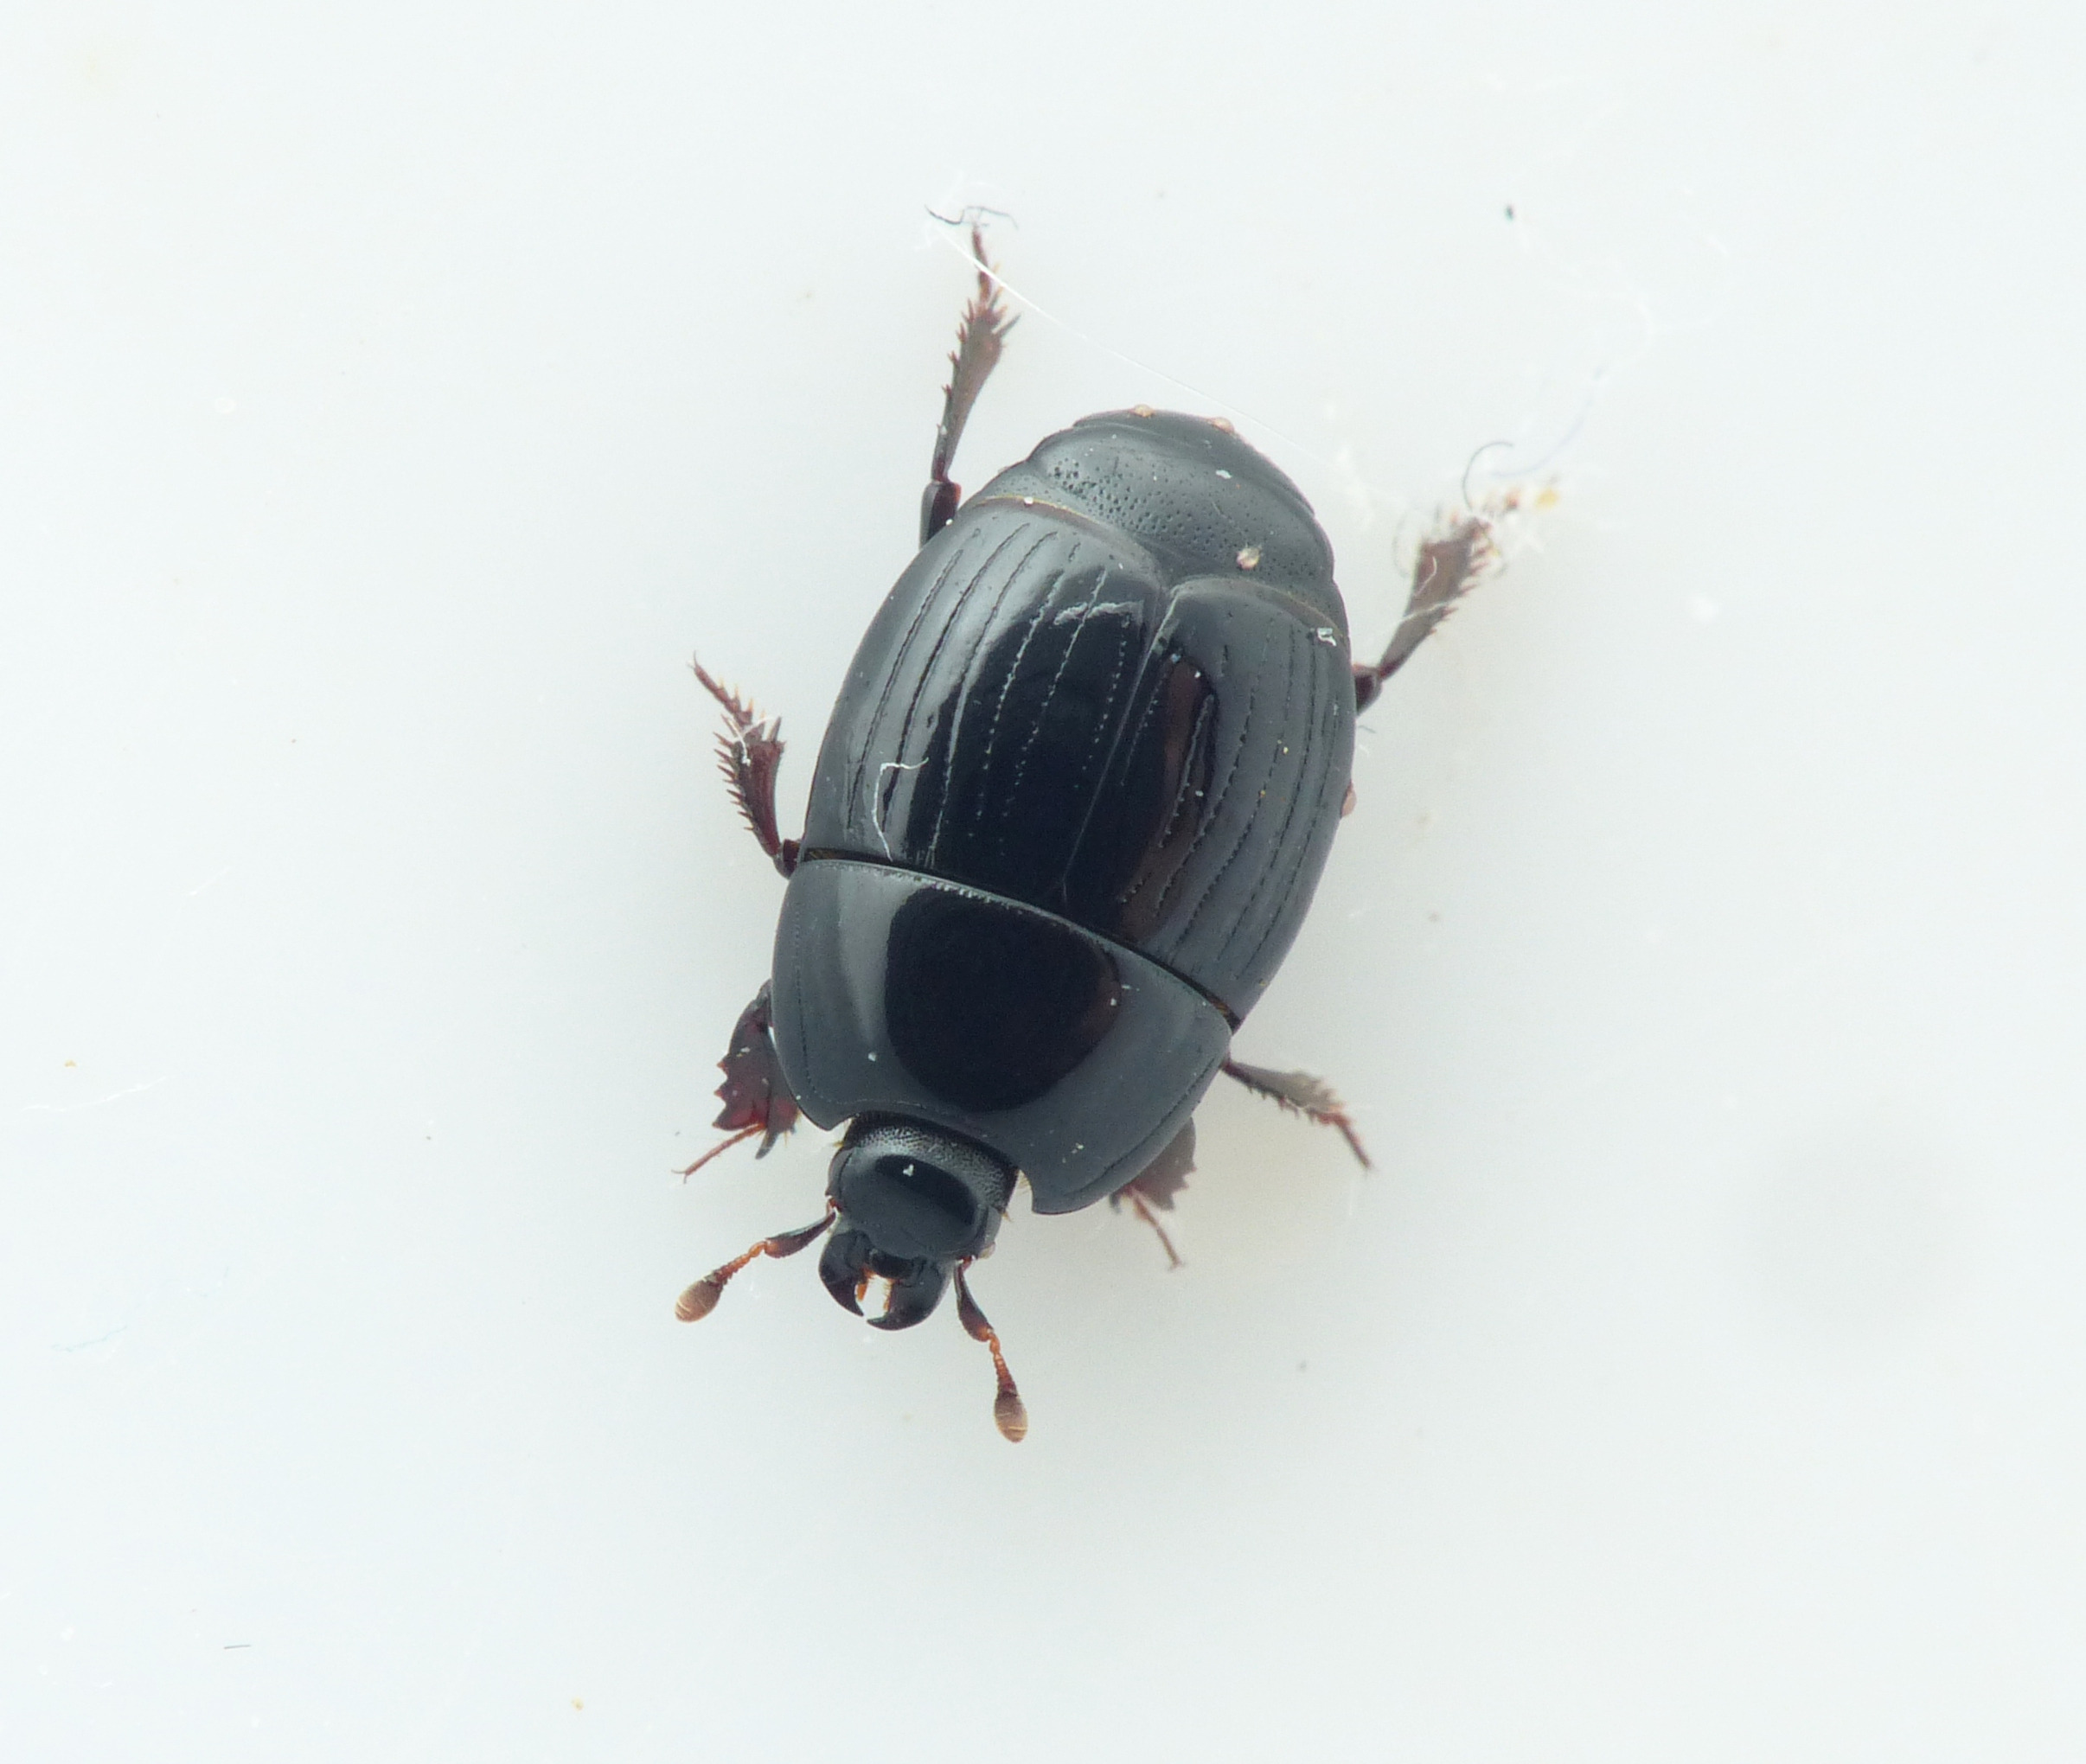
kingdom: Animalia
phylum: Arthropoda
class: Insecta
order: Coleoptera
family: Histeridae
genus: Atholus
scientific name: Atholus duodecimstriatus
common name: Fuldstribet stumpbille
